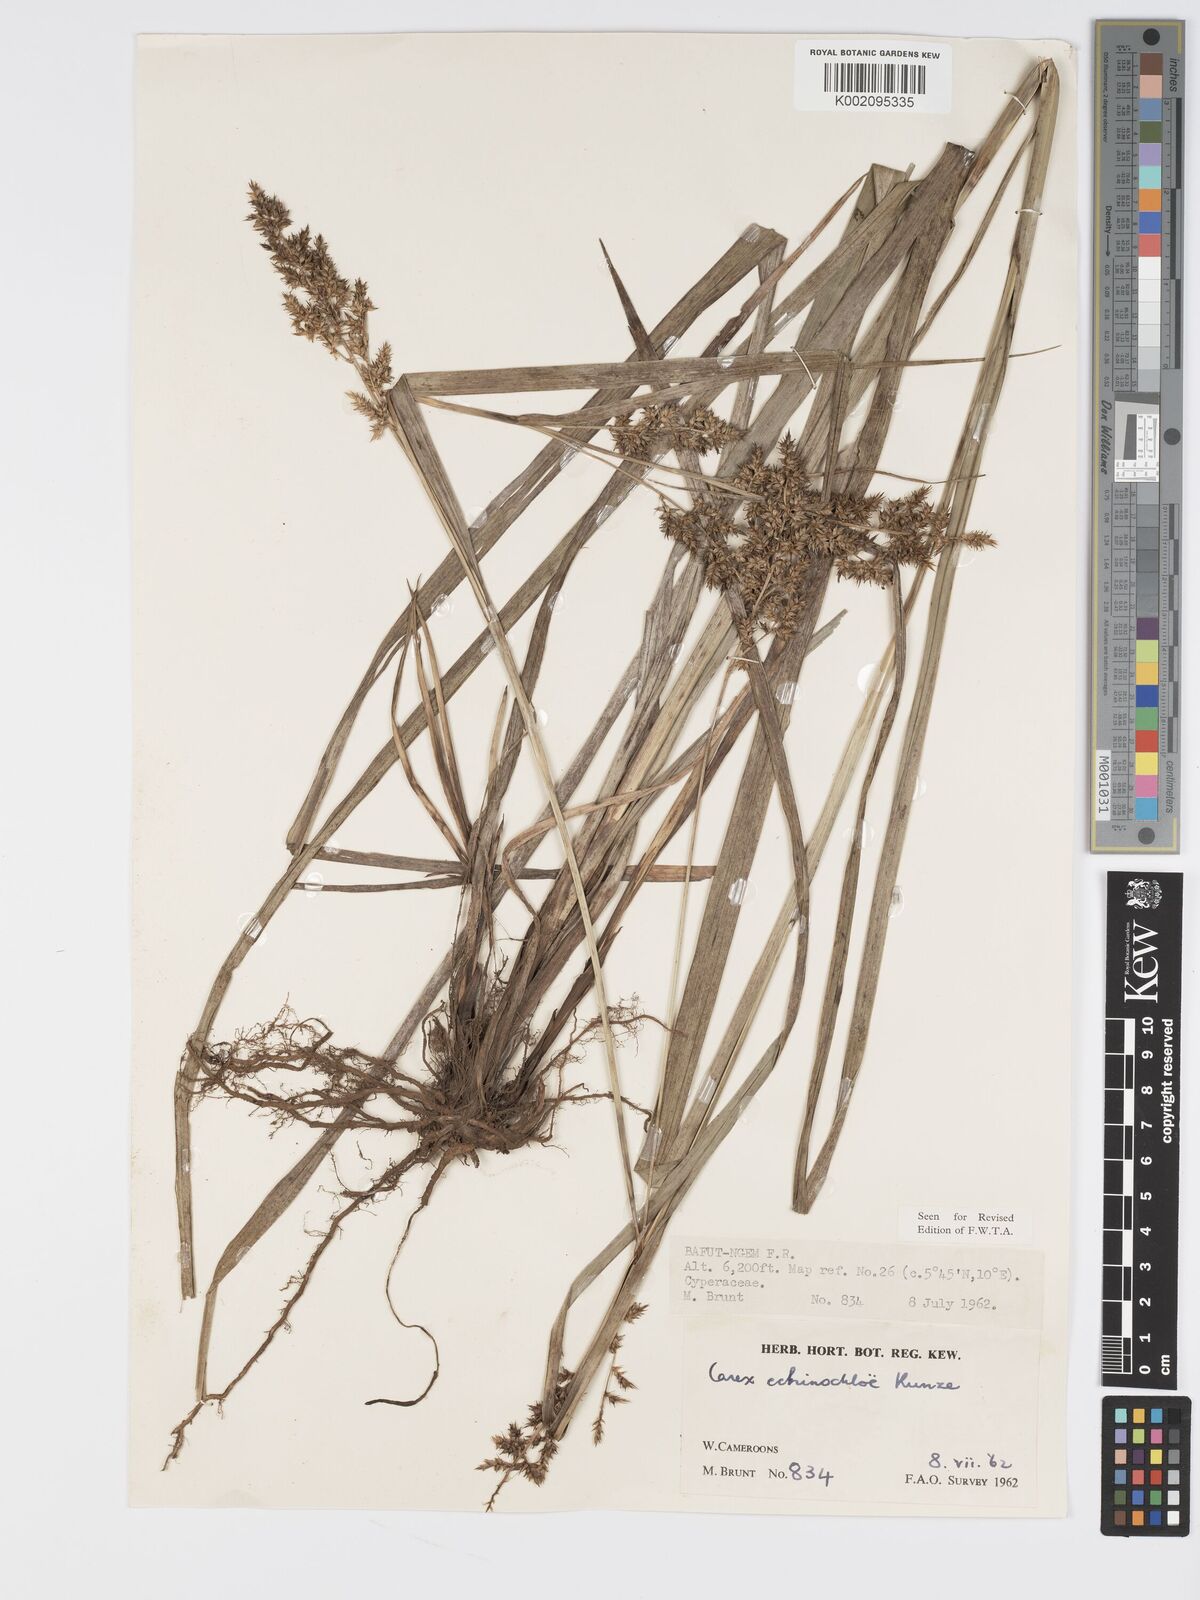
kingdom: Plantae
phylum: Tracheophyta
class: Liliopsida
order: Poales
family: Cyperaceae
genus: Carex
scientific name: Carex echinochloe
